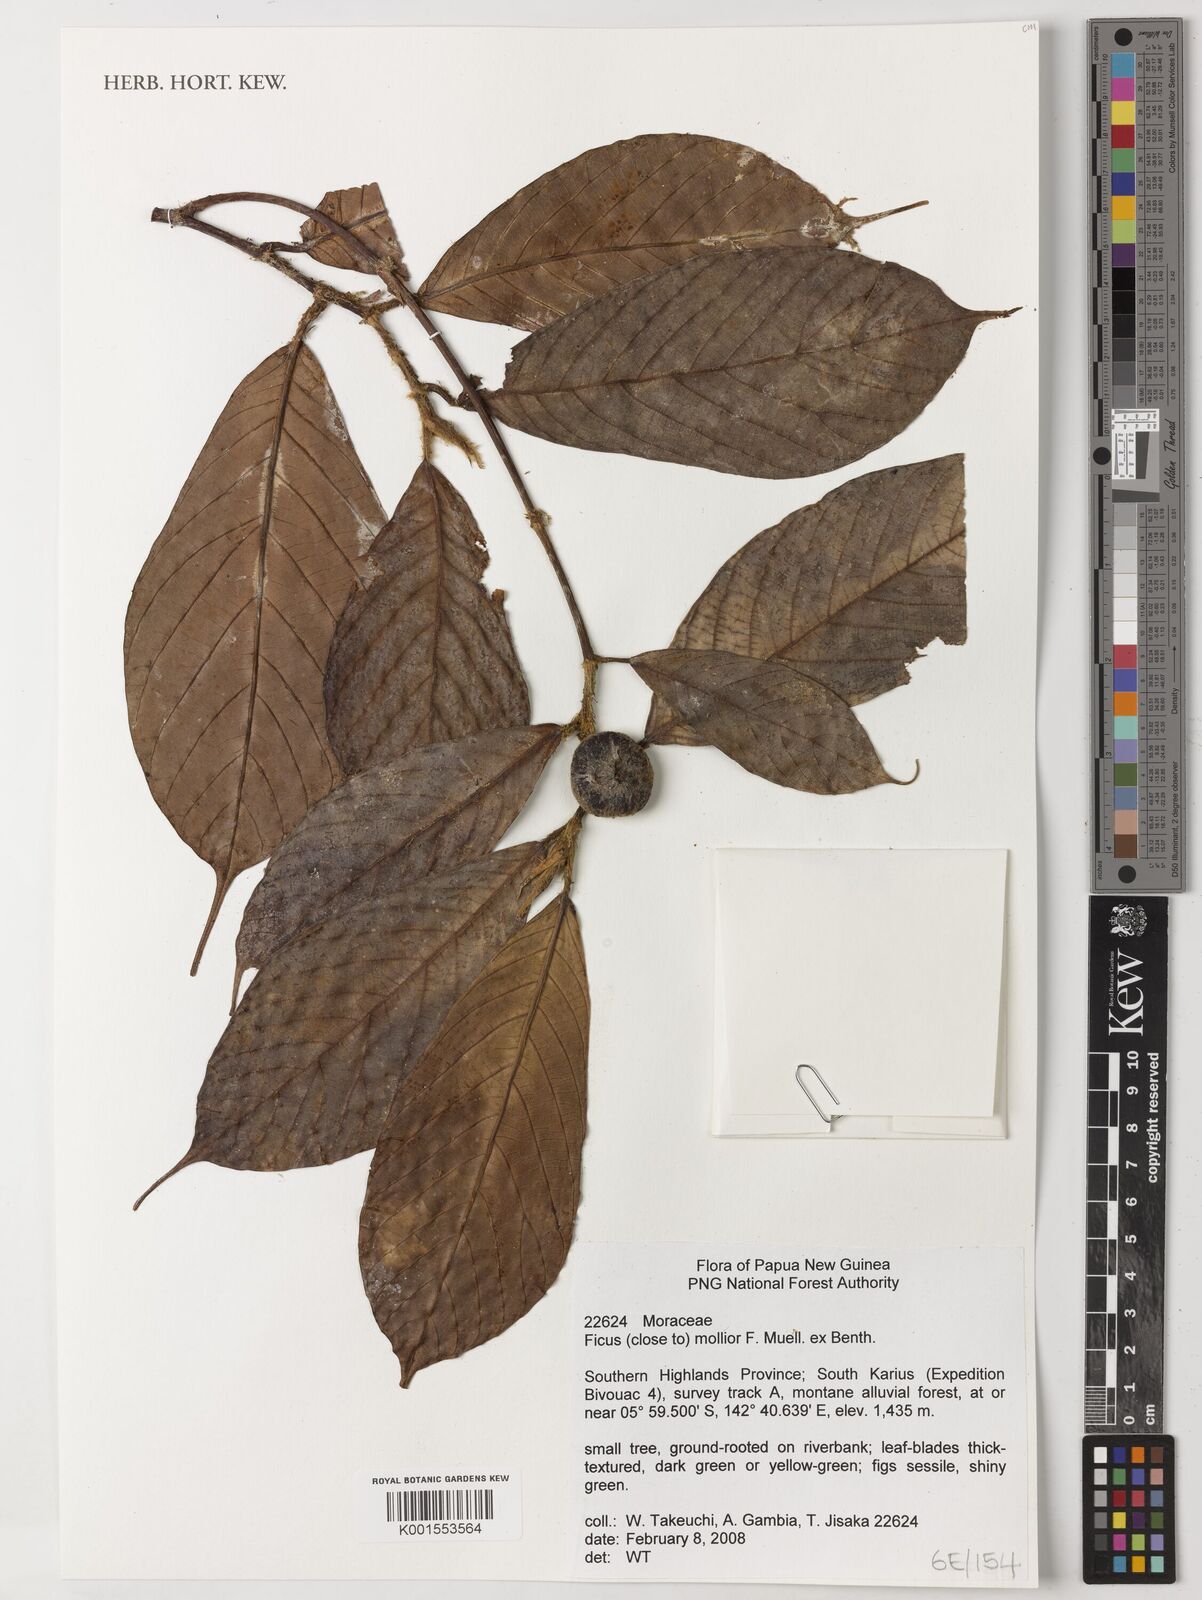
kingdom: Plantae
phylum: Tracheophyta
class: Magnoliopsida
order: Rosales
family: Moraceae
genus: Ficus
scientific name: Ficus mollior
